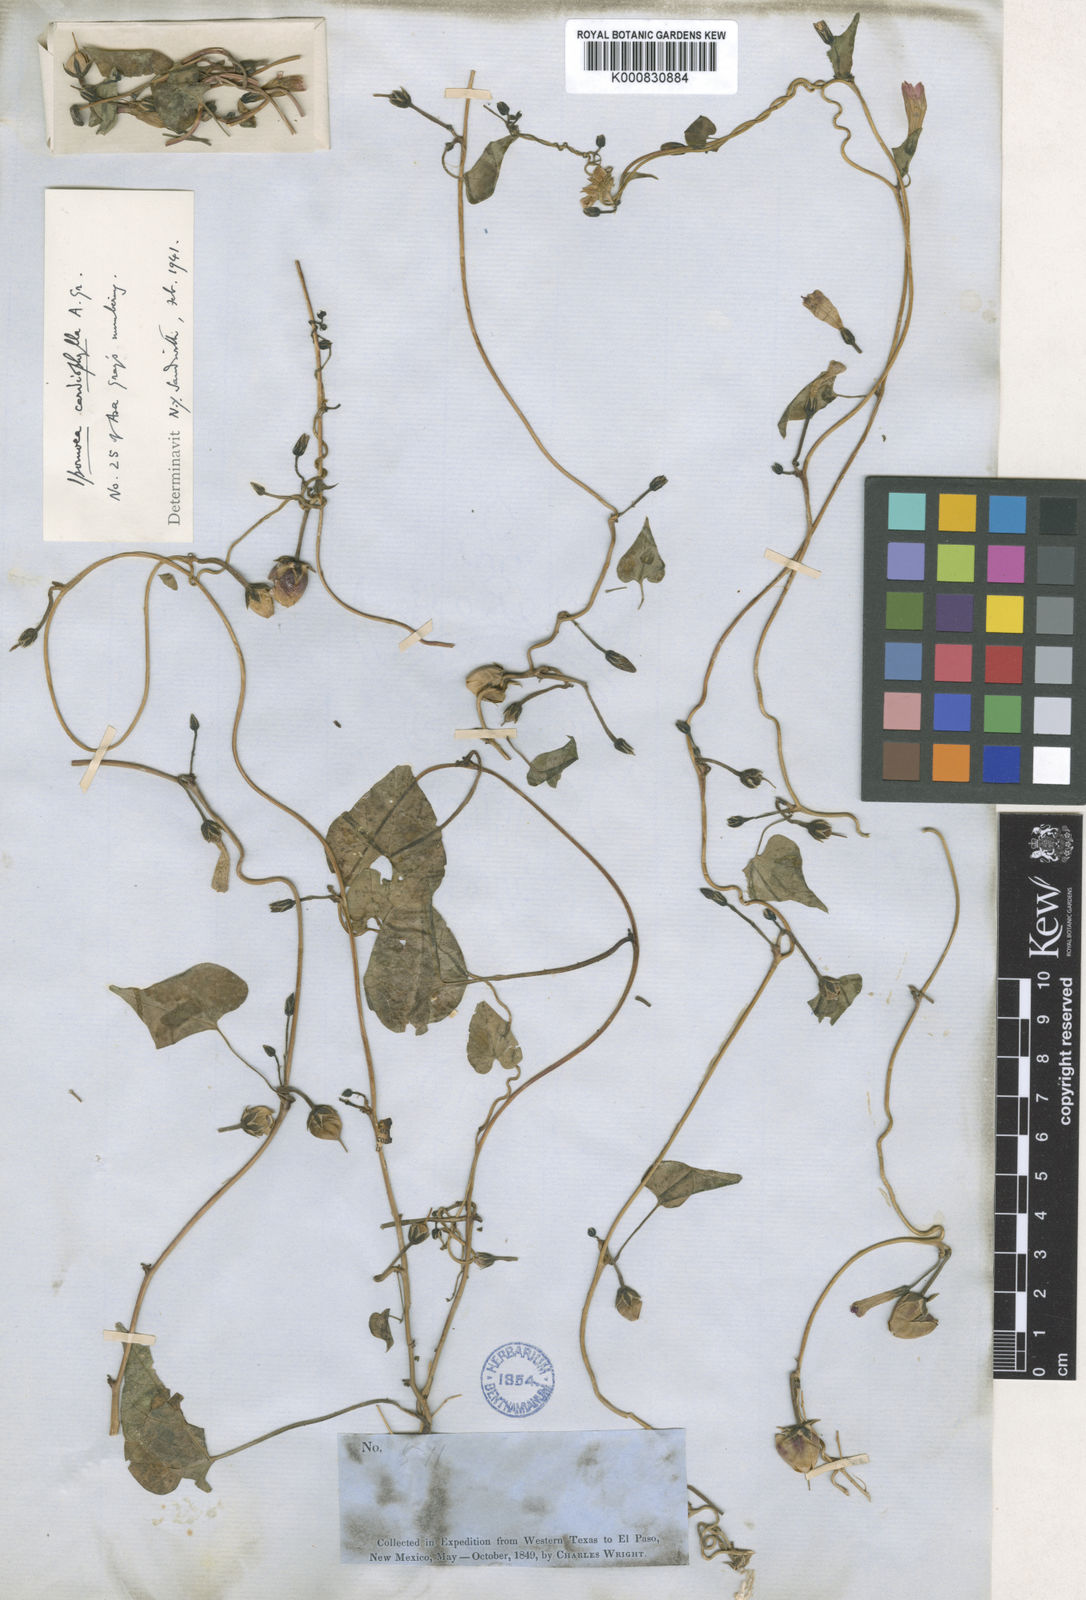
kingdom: Plantae
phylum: Tracheophyta
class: Magnoliopsida
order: Solanales
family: Convolvulaceae
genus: Ipomoea
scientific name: Ipomoea cardiophylla
